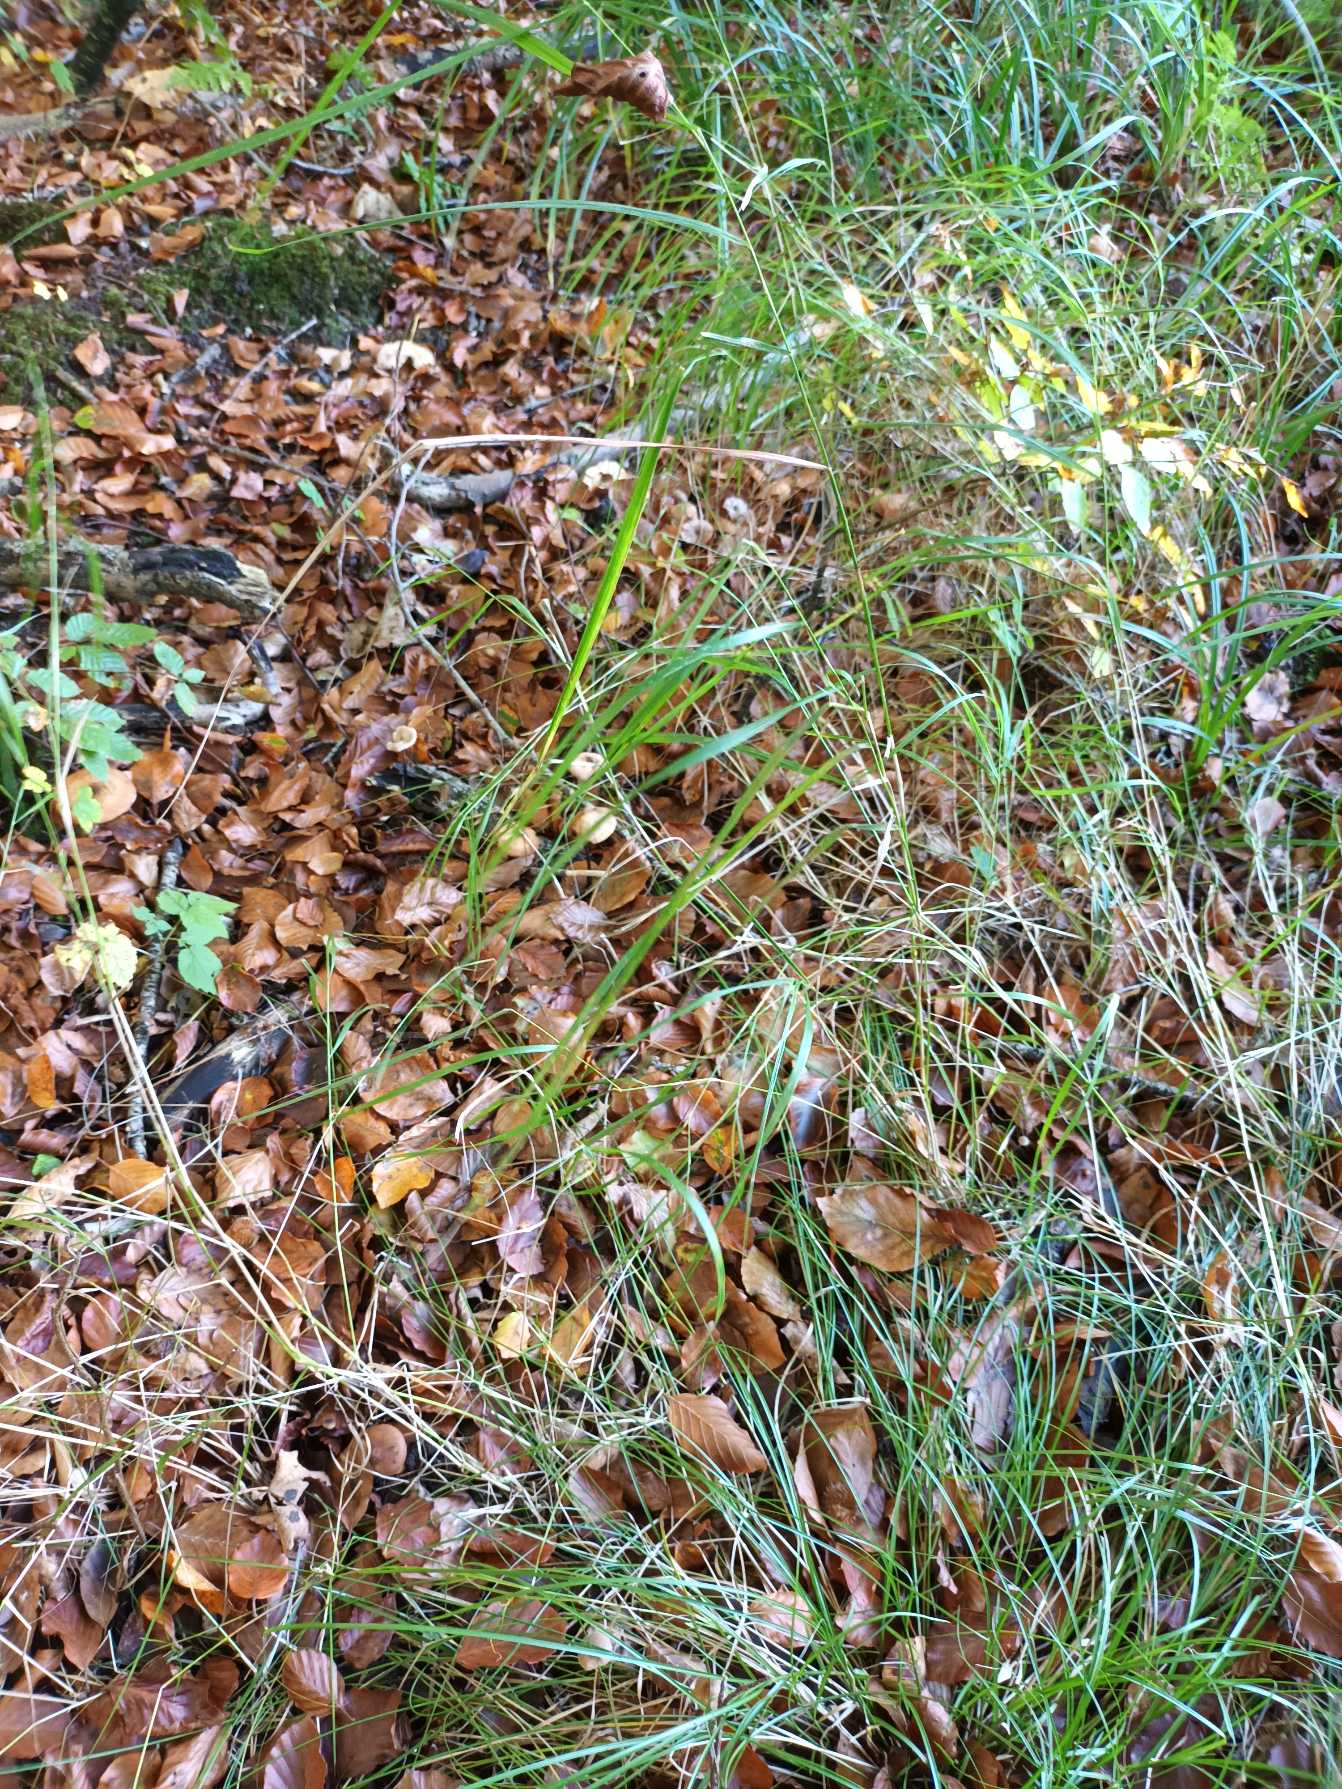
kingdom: Plantae
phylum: Tracheophyta
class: Liliopsida
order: Poales
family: Poaceae
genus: Calamagrostis
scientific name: Calamagrostis canescens
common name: Eng-rørhvene
